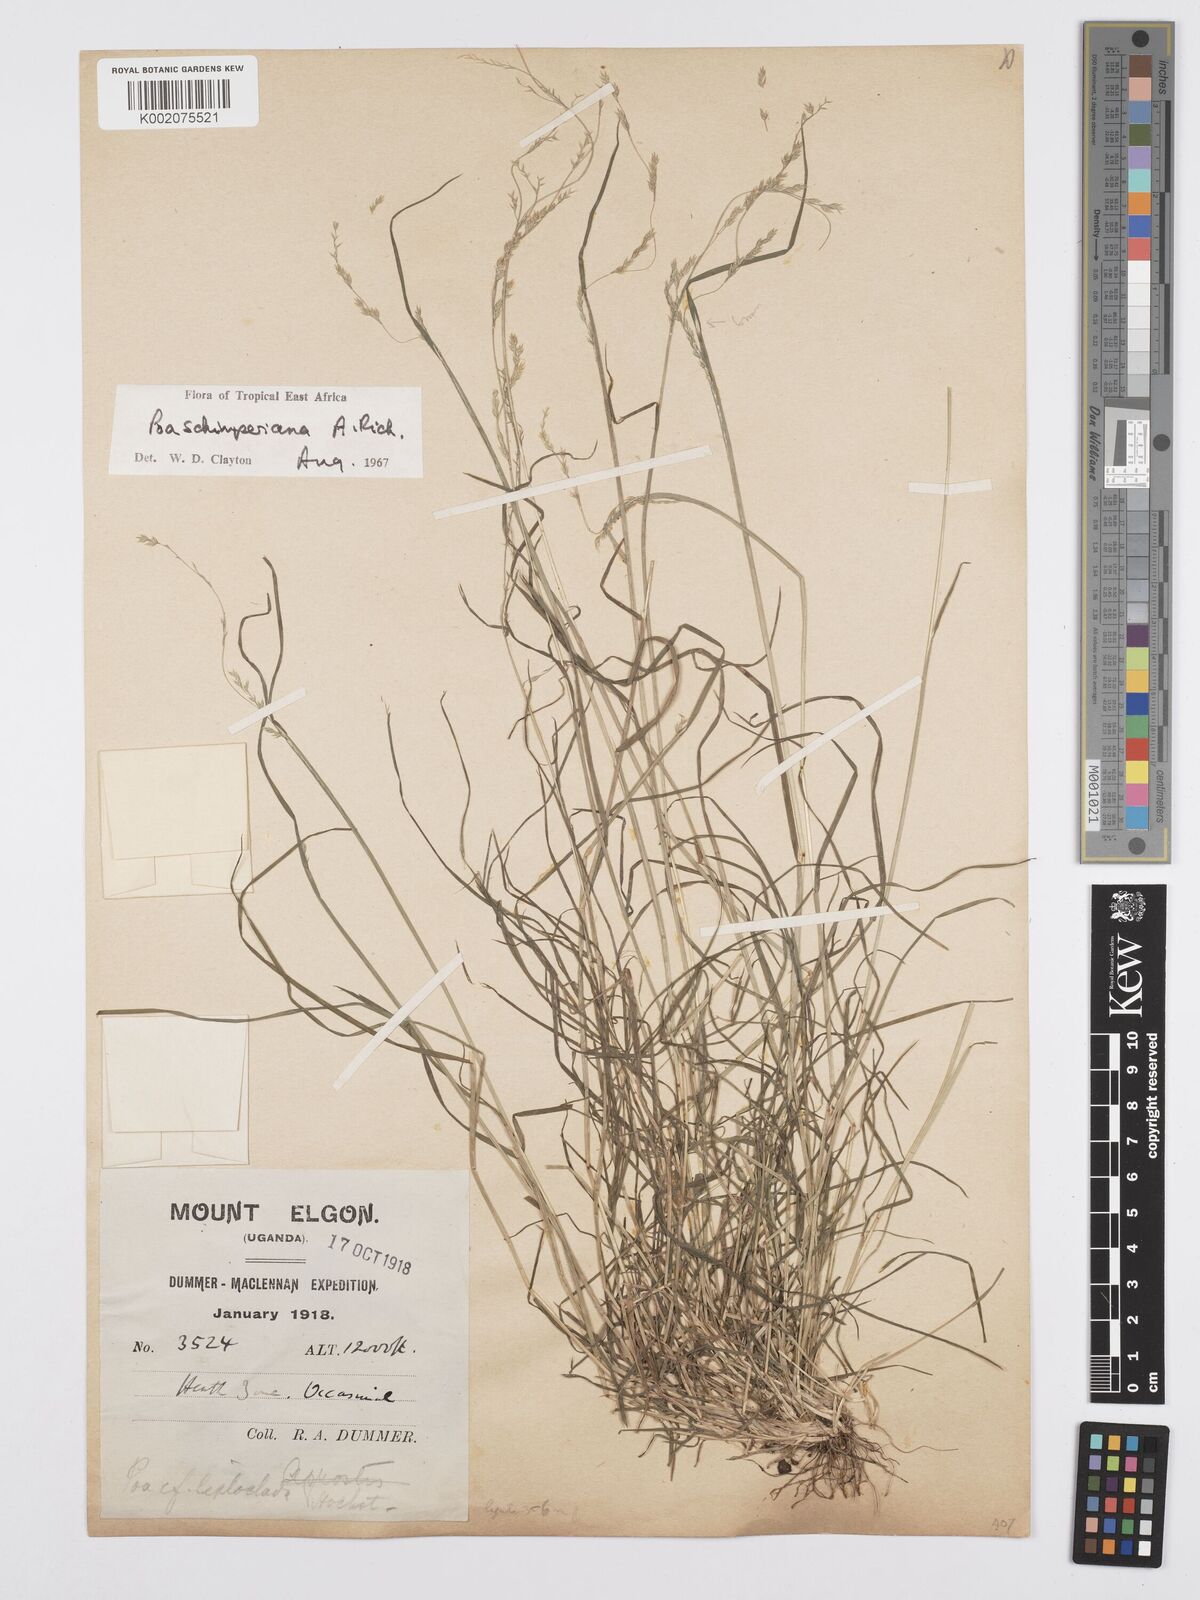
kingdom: Plantae
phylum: Tracheophyta
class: Liliopsida
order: Poales
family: Poaceae
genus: Poa
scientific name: Poa schimperiana
